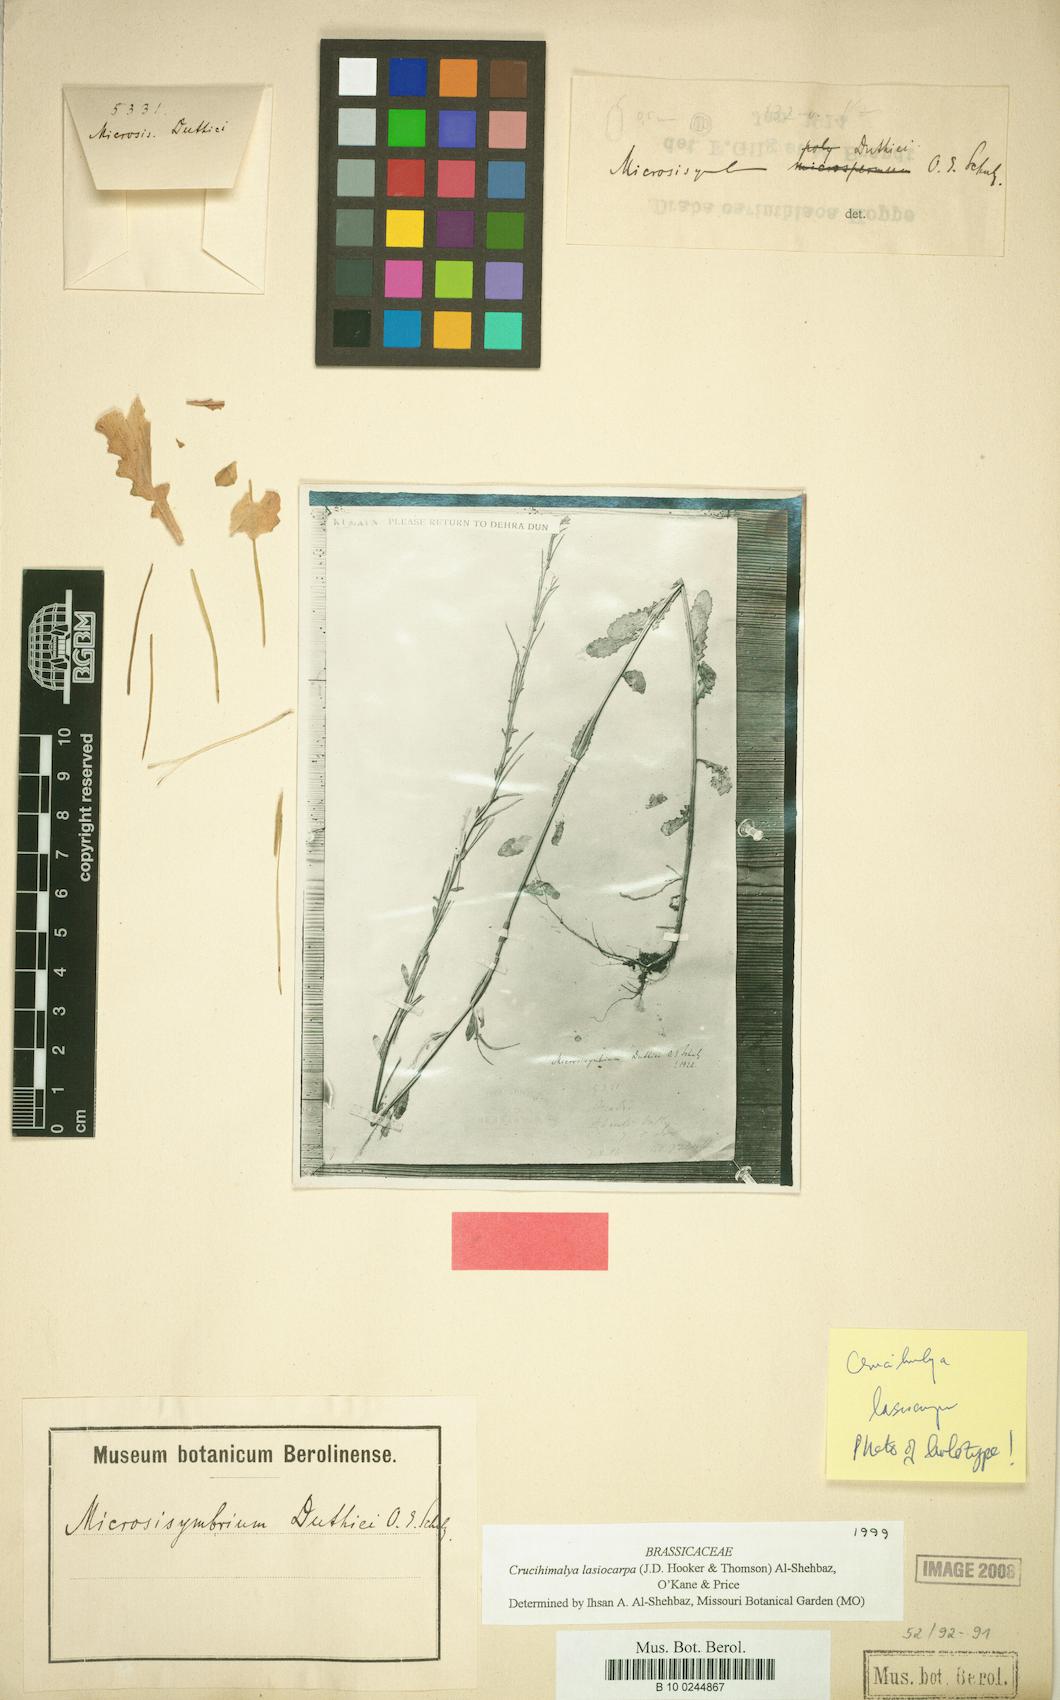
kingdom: Plantae
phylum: Tracheophyta
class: Magnoliopsida
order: Brassicales
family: Brassicaceae
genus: Crucihimalaya
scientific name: Crucihimalaya lasiocarpa
